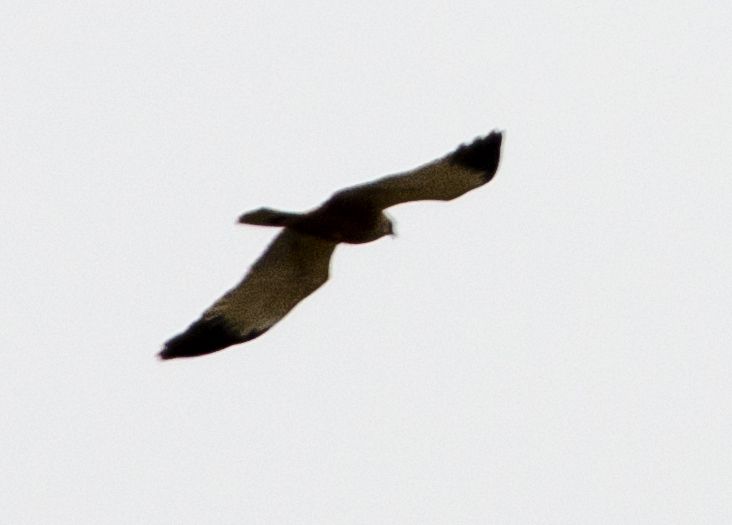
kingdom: Animalia
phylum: Chordata
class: Aves
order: Accipitriformes
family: Accipitridae
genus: Circus
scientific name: Circus cyaneus
